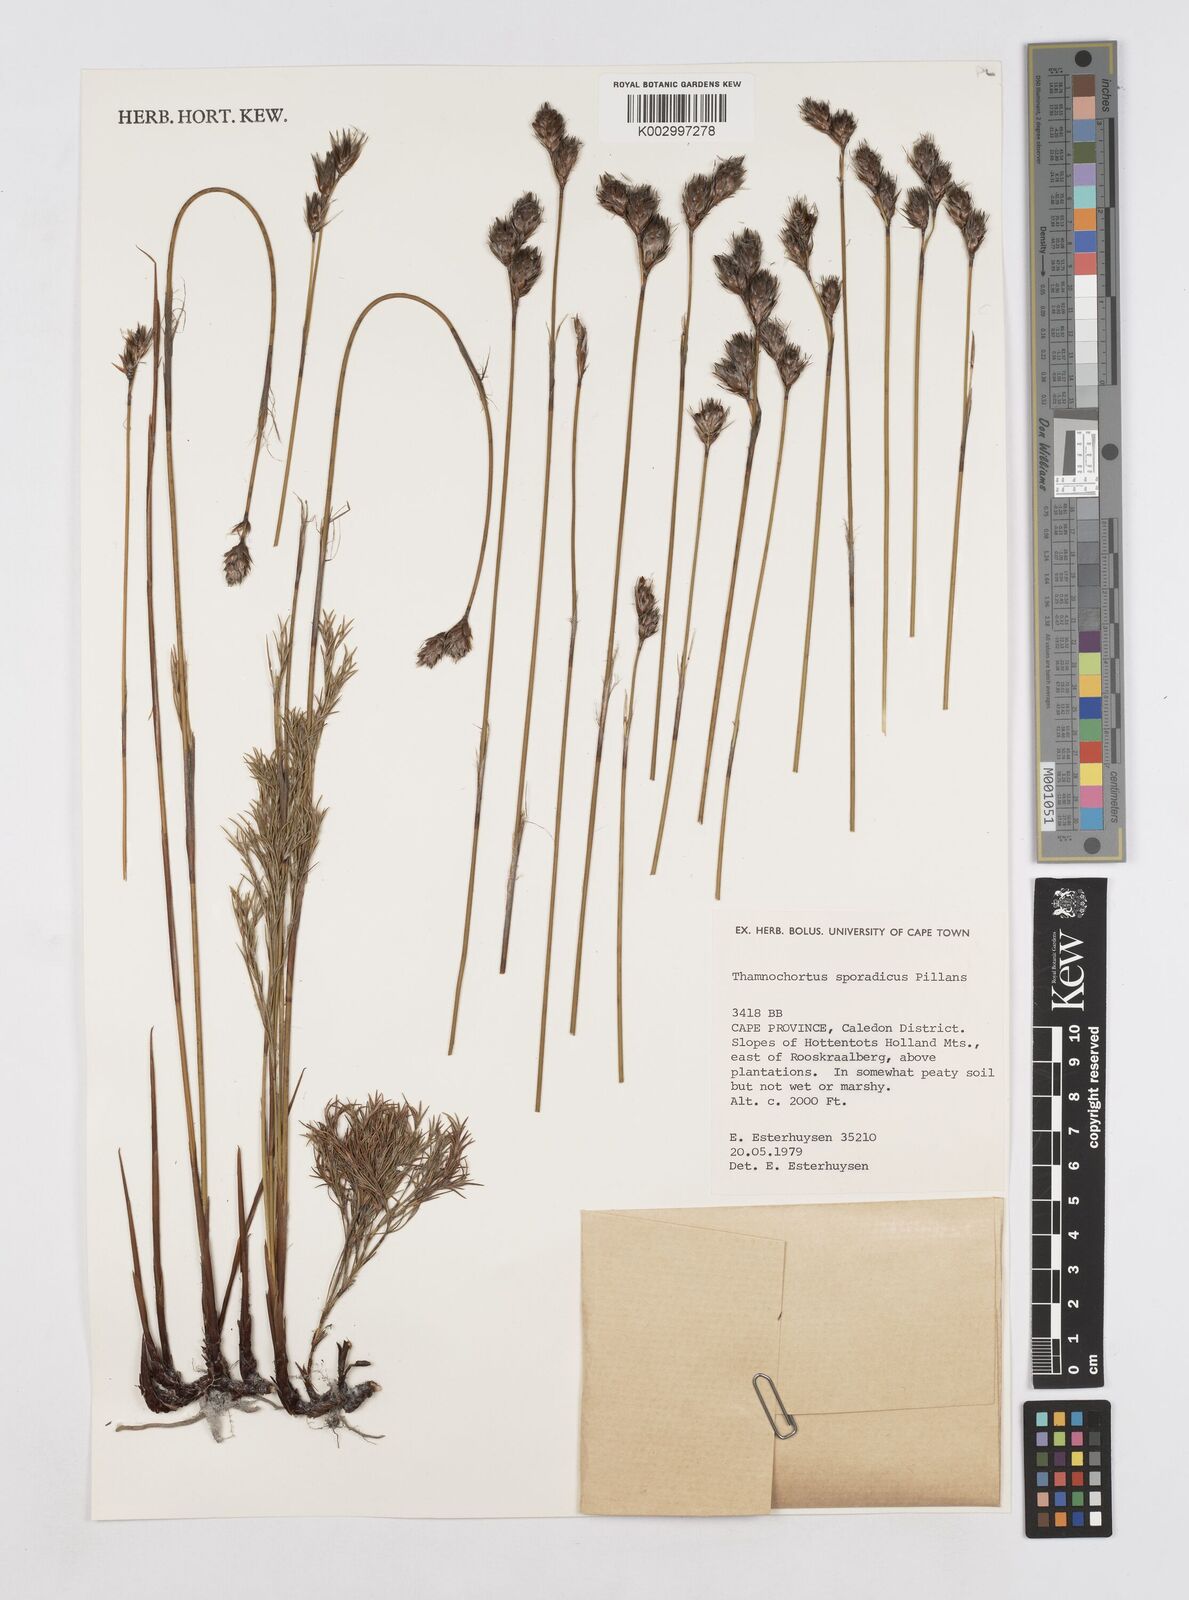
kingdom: Plantae
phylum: Tracheophyta
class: Liliopsida
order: Poales
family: Restionaceae
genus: Thamnochortus
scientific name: Thamnochortus sporadicus
